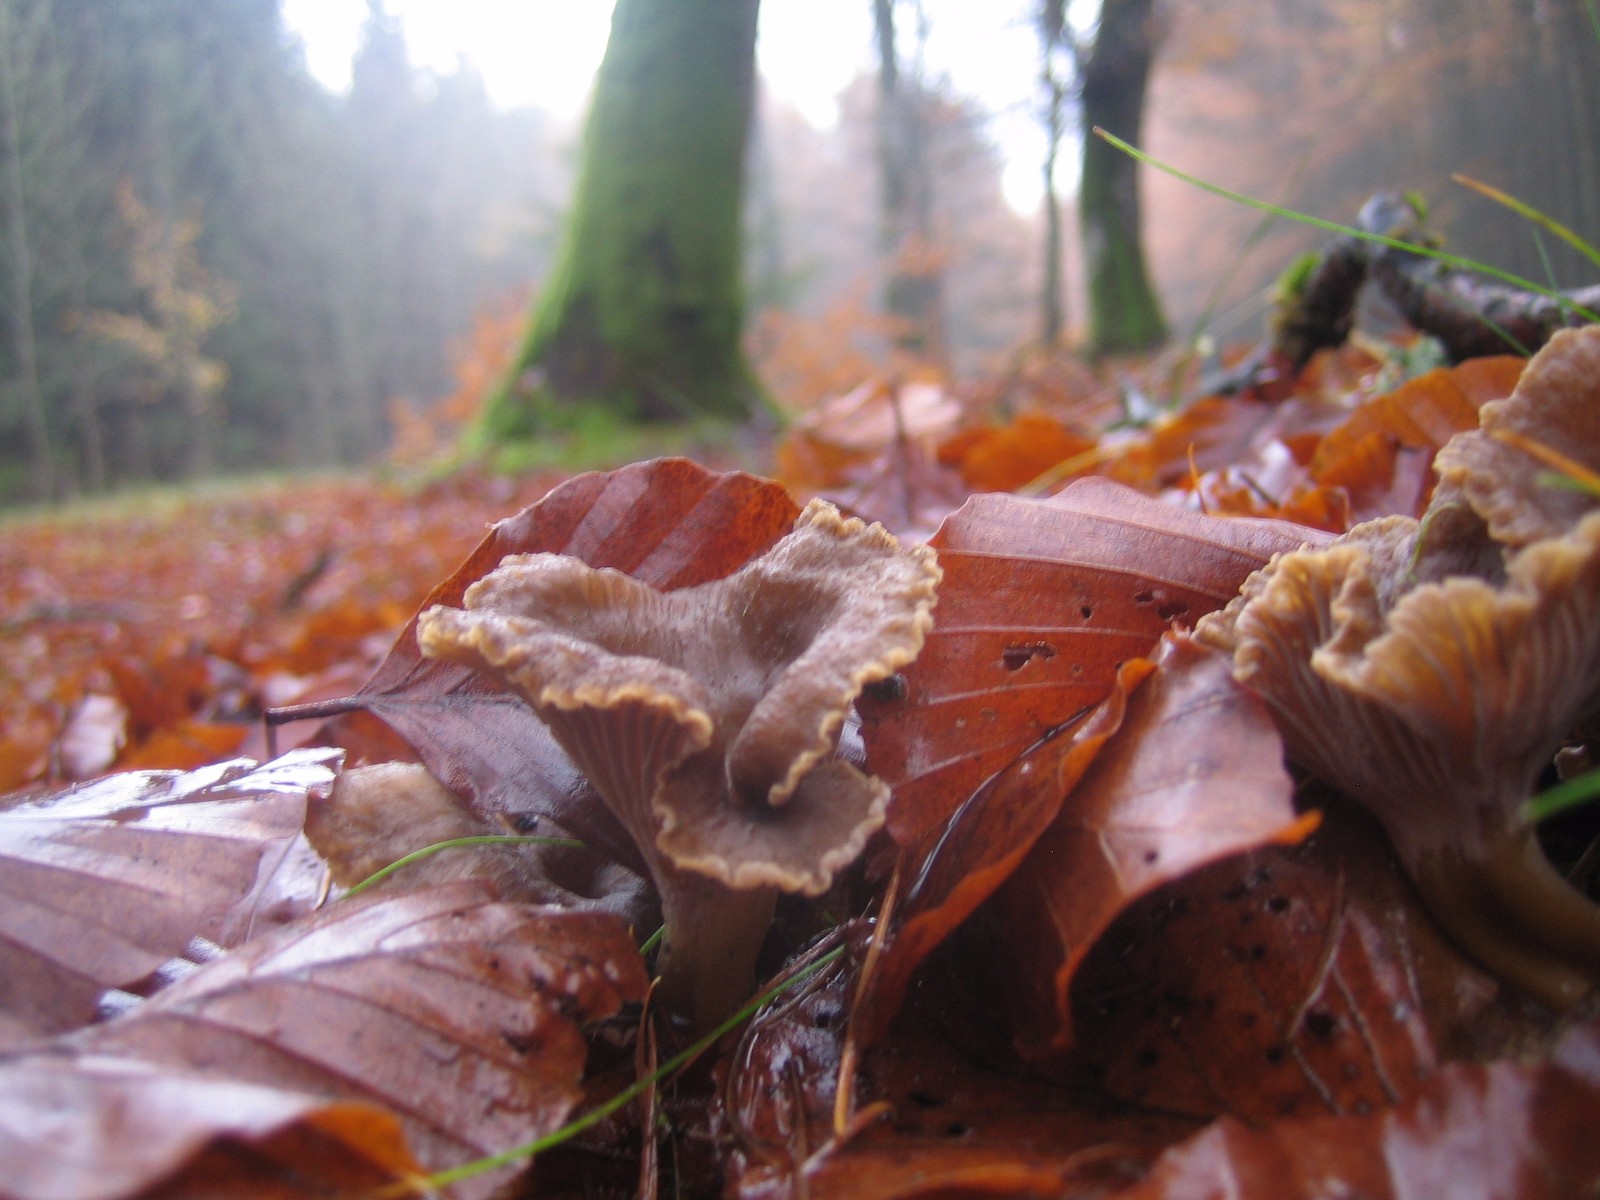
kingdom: Fungi
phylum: Basidiomycota
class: Agaricomycetes
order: Cantharellales
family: Hydnaceae
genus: Craterellus
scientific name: Craterellus tubaeformis
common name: tragt-kantarel
